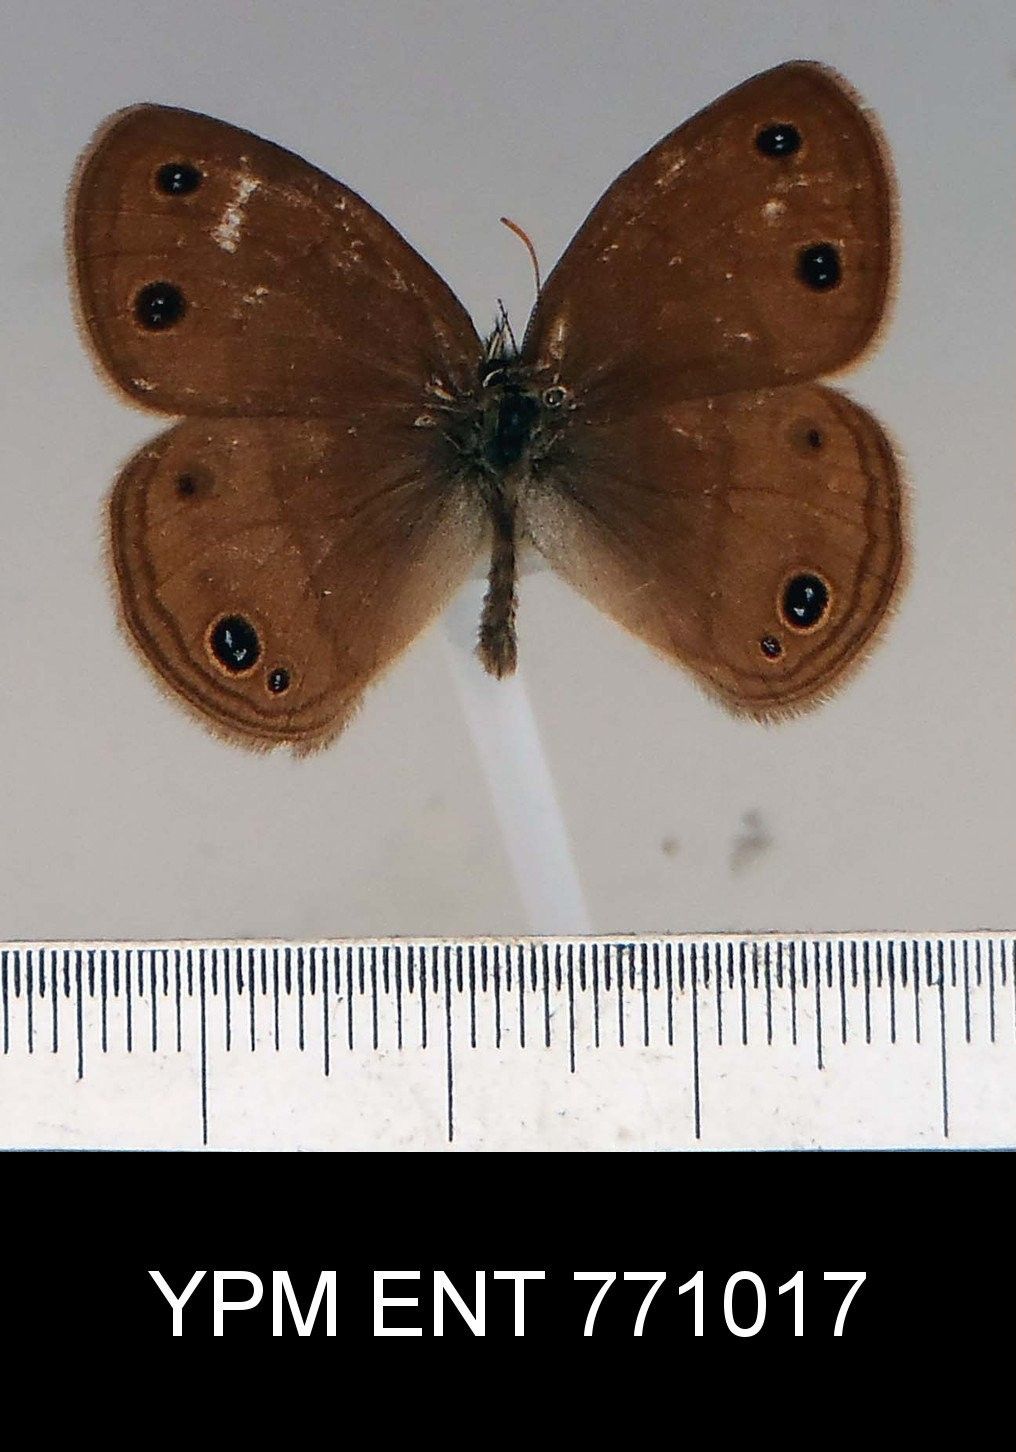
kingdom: Animalia
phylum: Arthropoda
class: Insecta
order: Lepidoptera
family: Nymphalidae
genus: Euptychia
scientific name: Euptychia cymela
